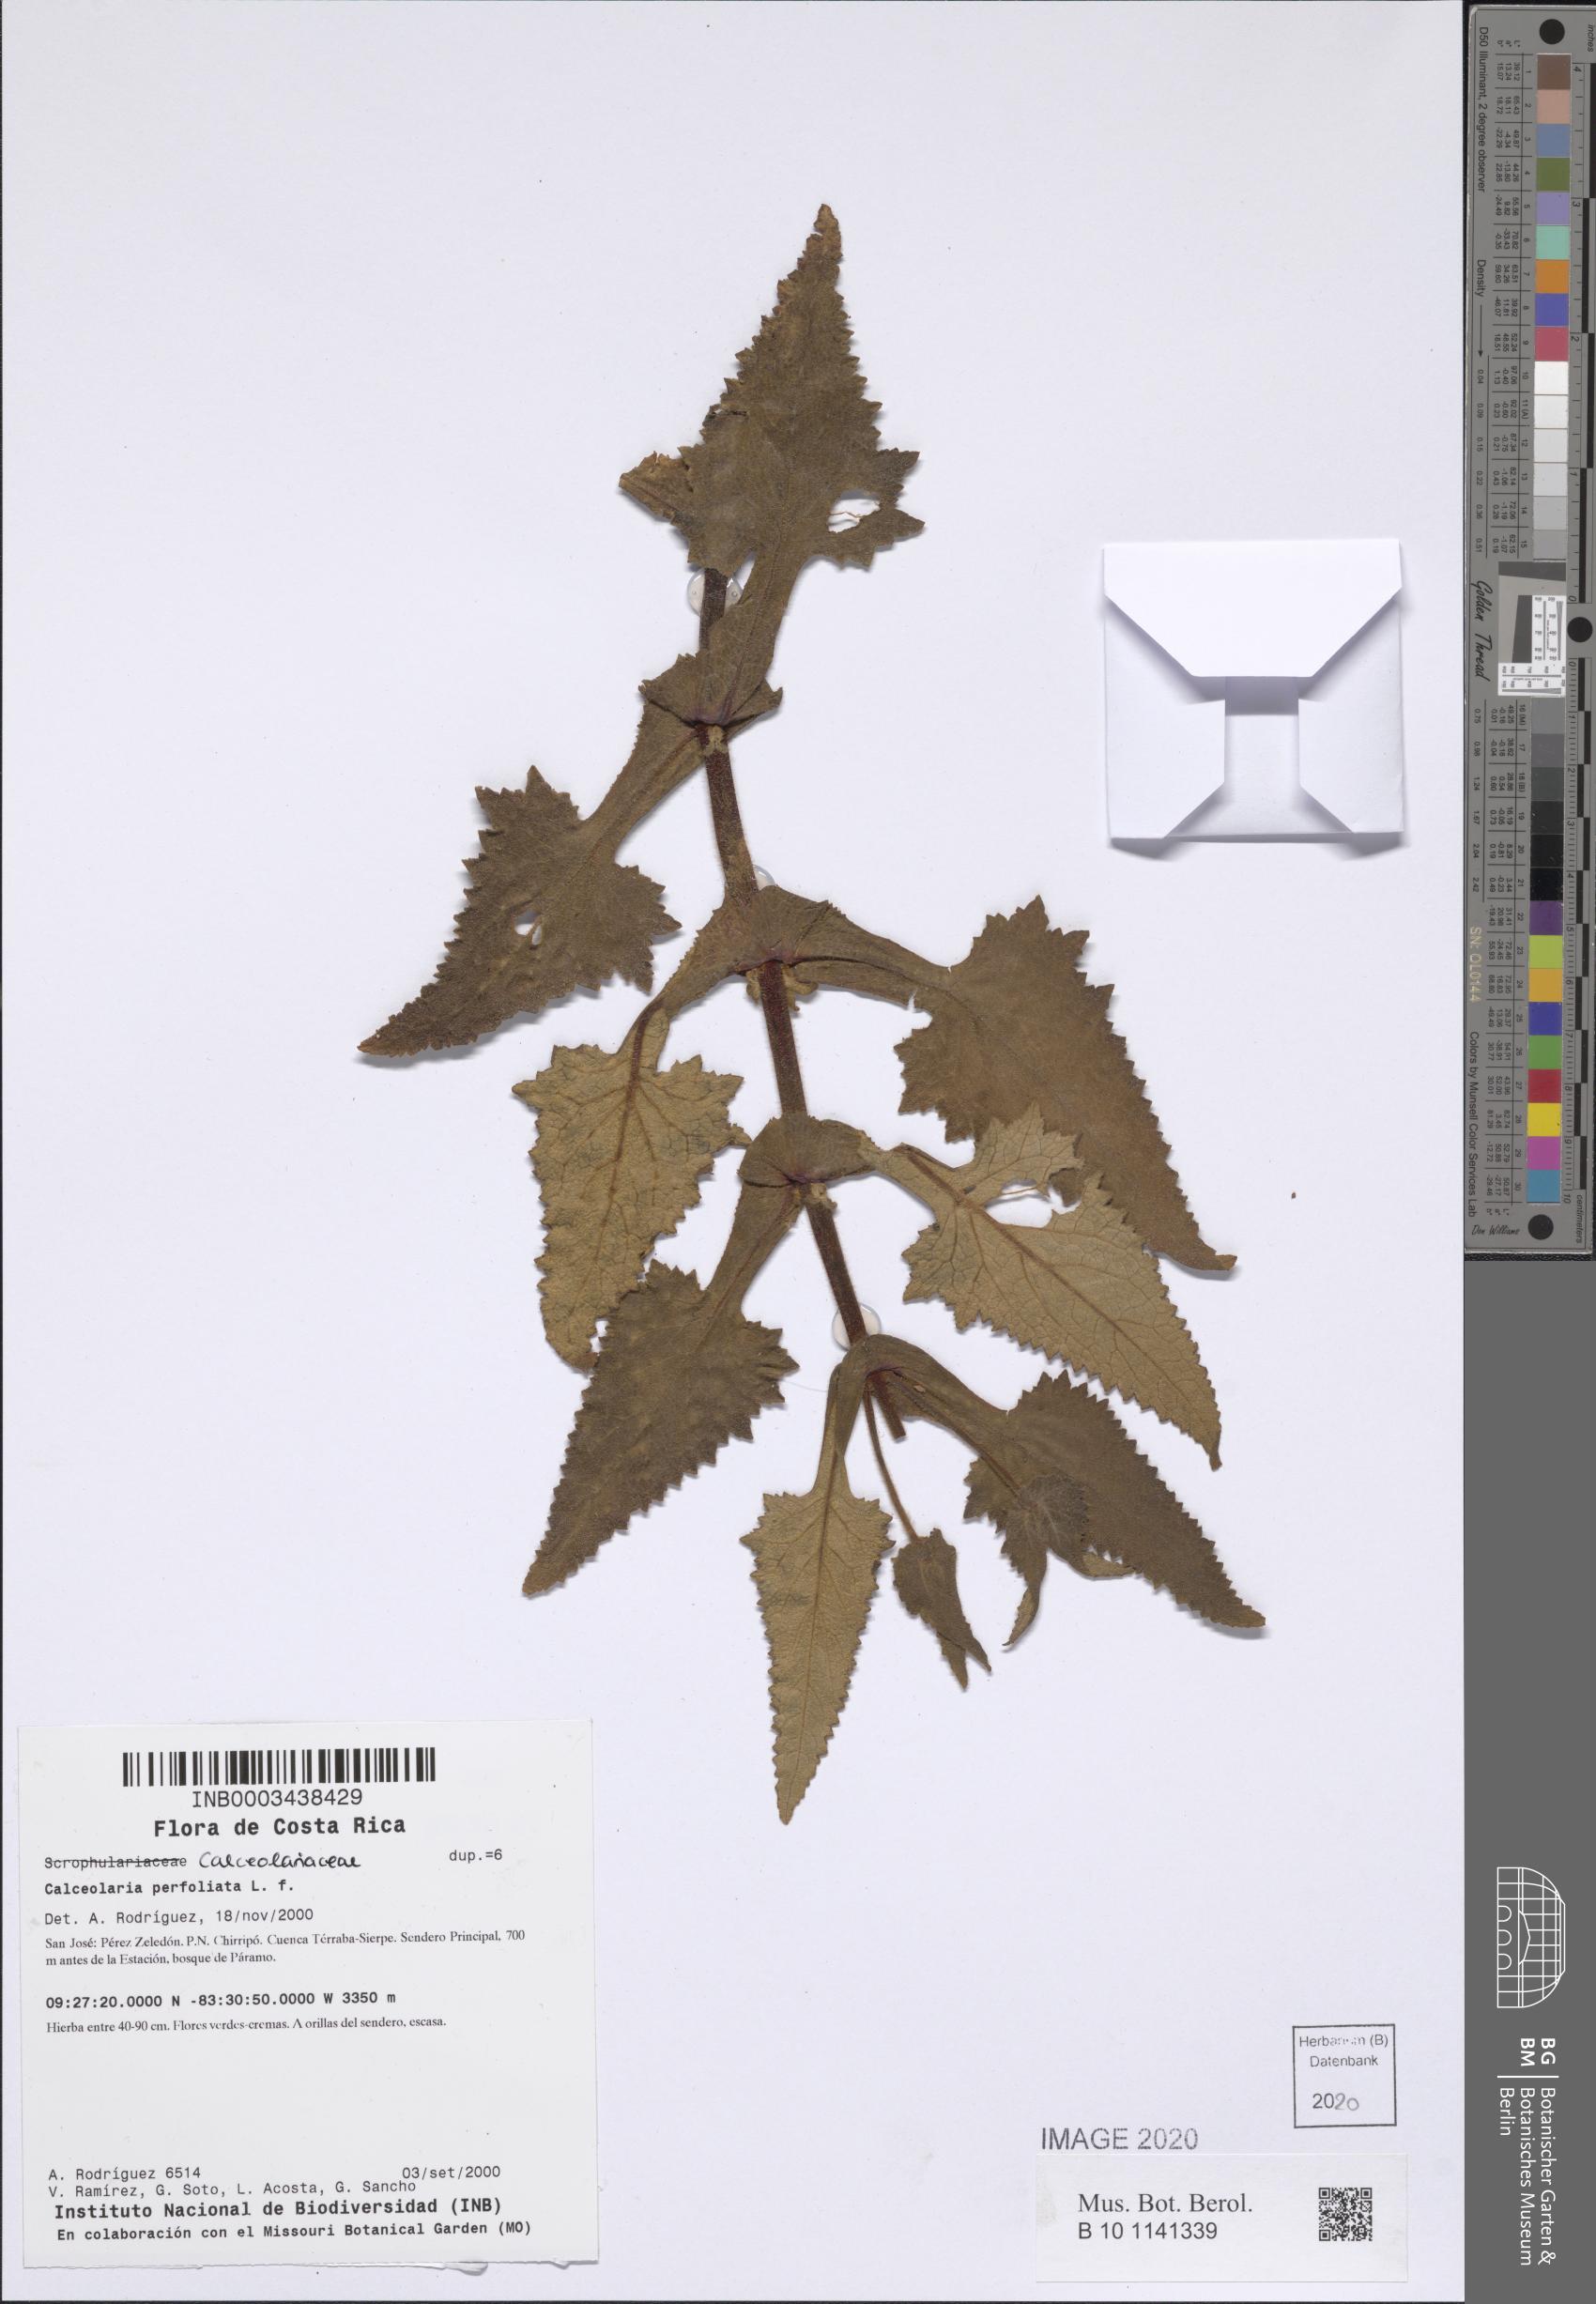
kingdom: Plantae
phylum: Tracheophyta
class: Magnoliopsida
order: Lamiales
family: Calceolariaceae
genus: Calceolaria
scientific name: Calceolaria perfoliata
